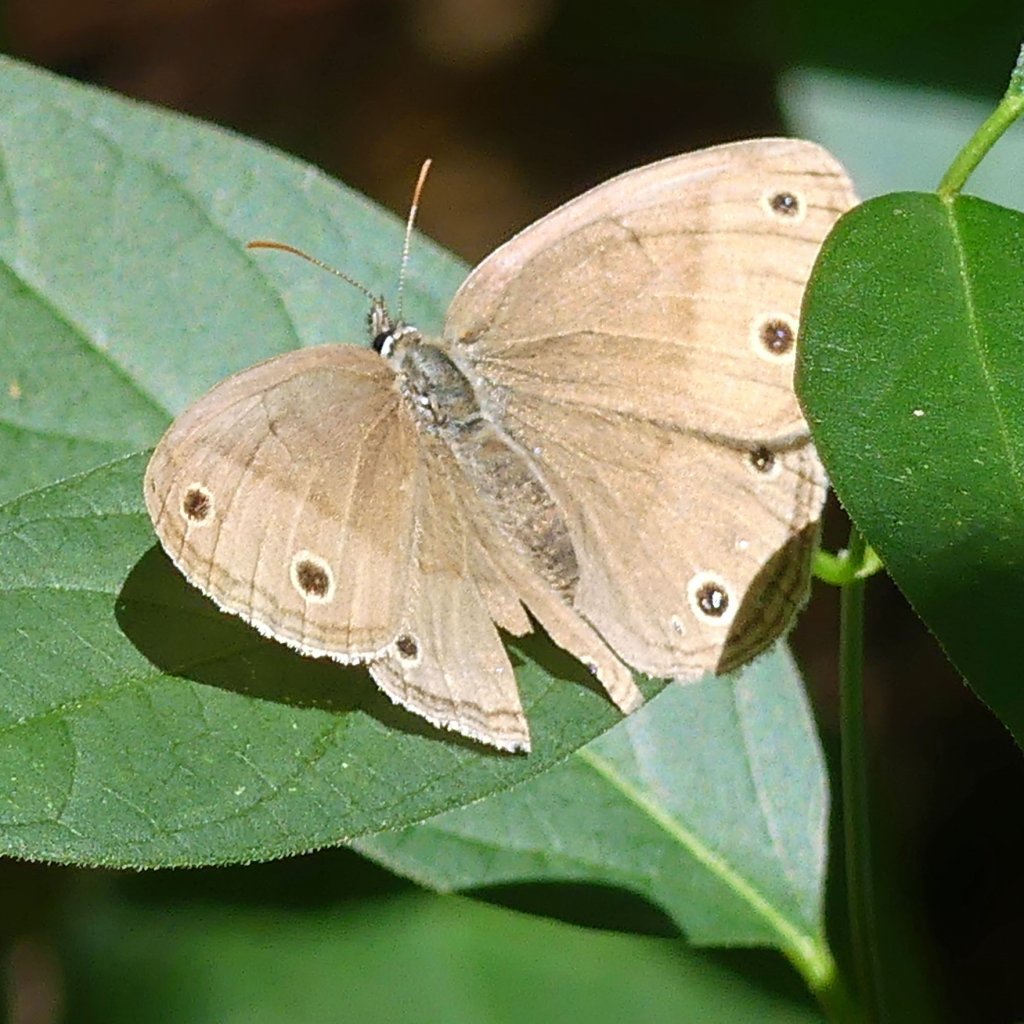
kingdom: Animalia
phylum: Arthropoda
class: Insecta
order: Lepidoptera
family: Nymphalidae
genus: Euptychia
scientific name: Euptychia cymela
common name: Little Wood Satyr
